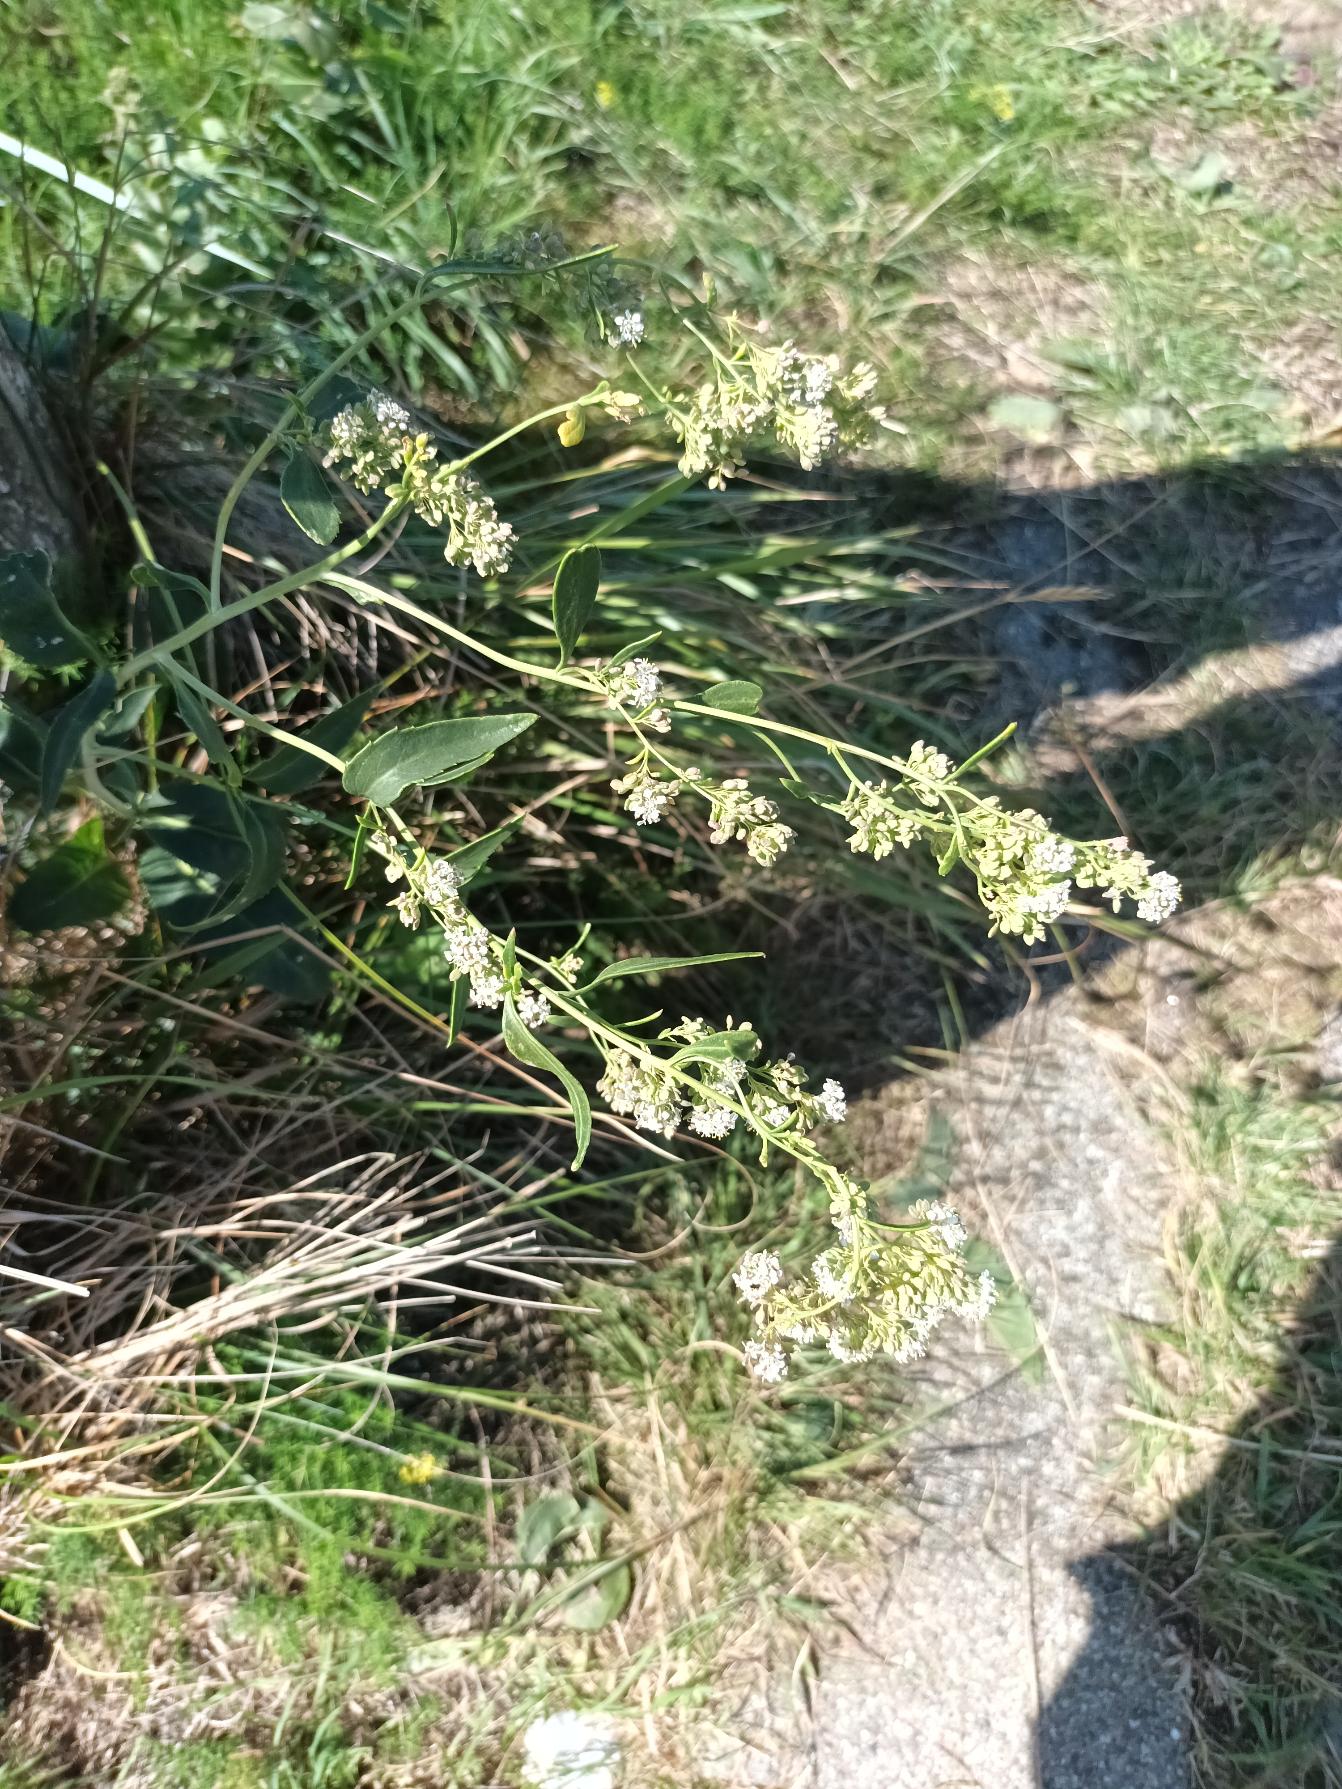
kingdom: Plantae
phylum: Tracheophyta
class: Magnoliopsida
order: Brassicales
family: Brassicaceae
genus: Lepidium
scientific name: Lepidium latifolium
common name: Strand-karse
